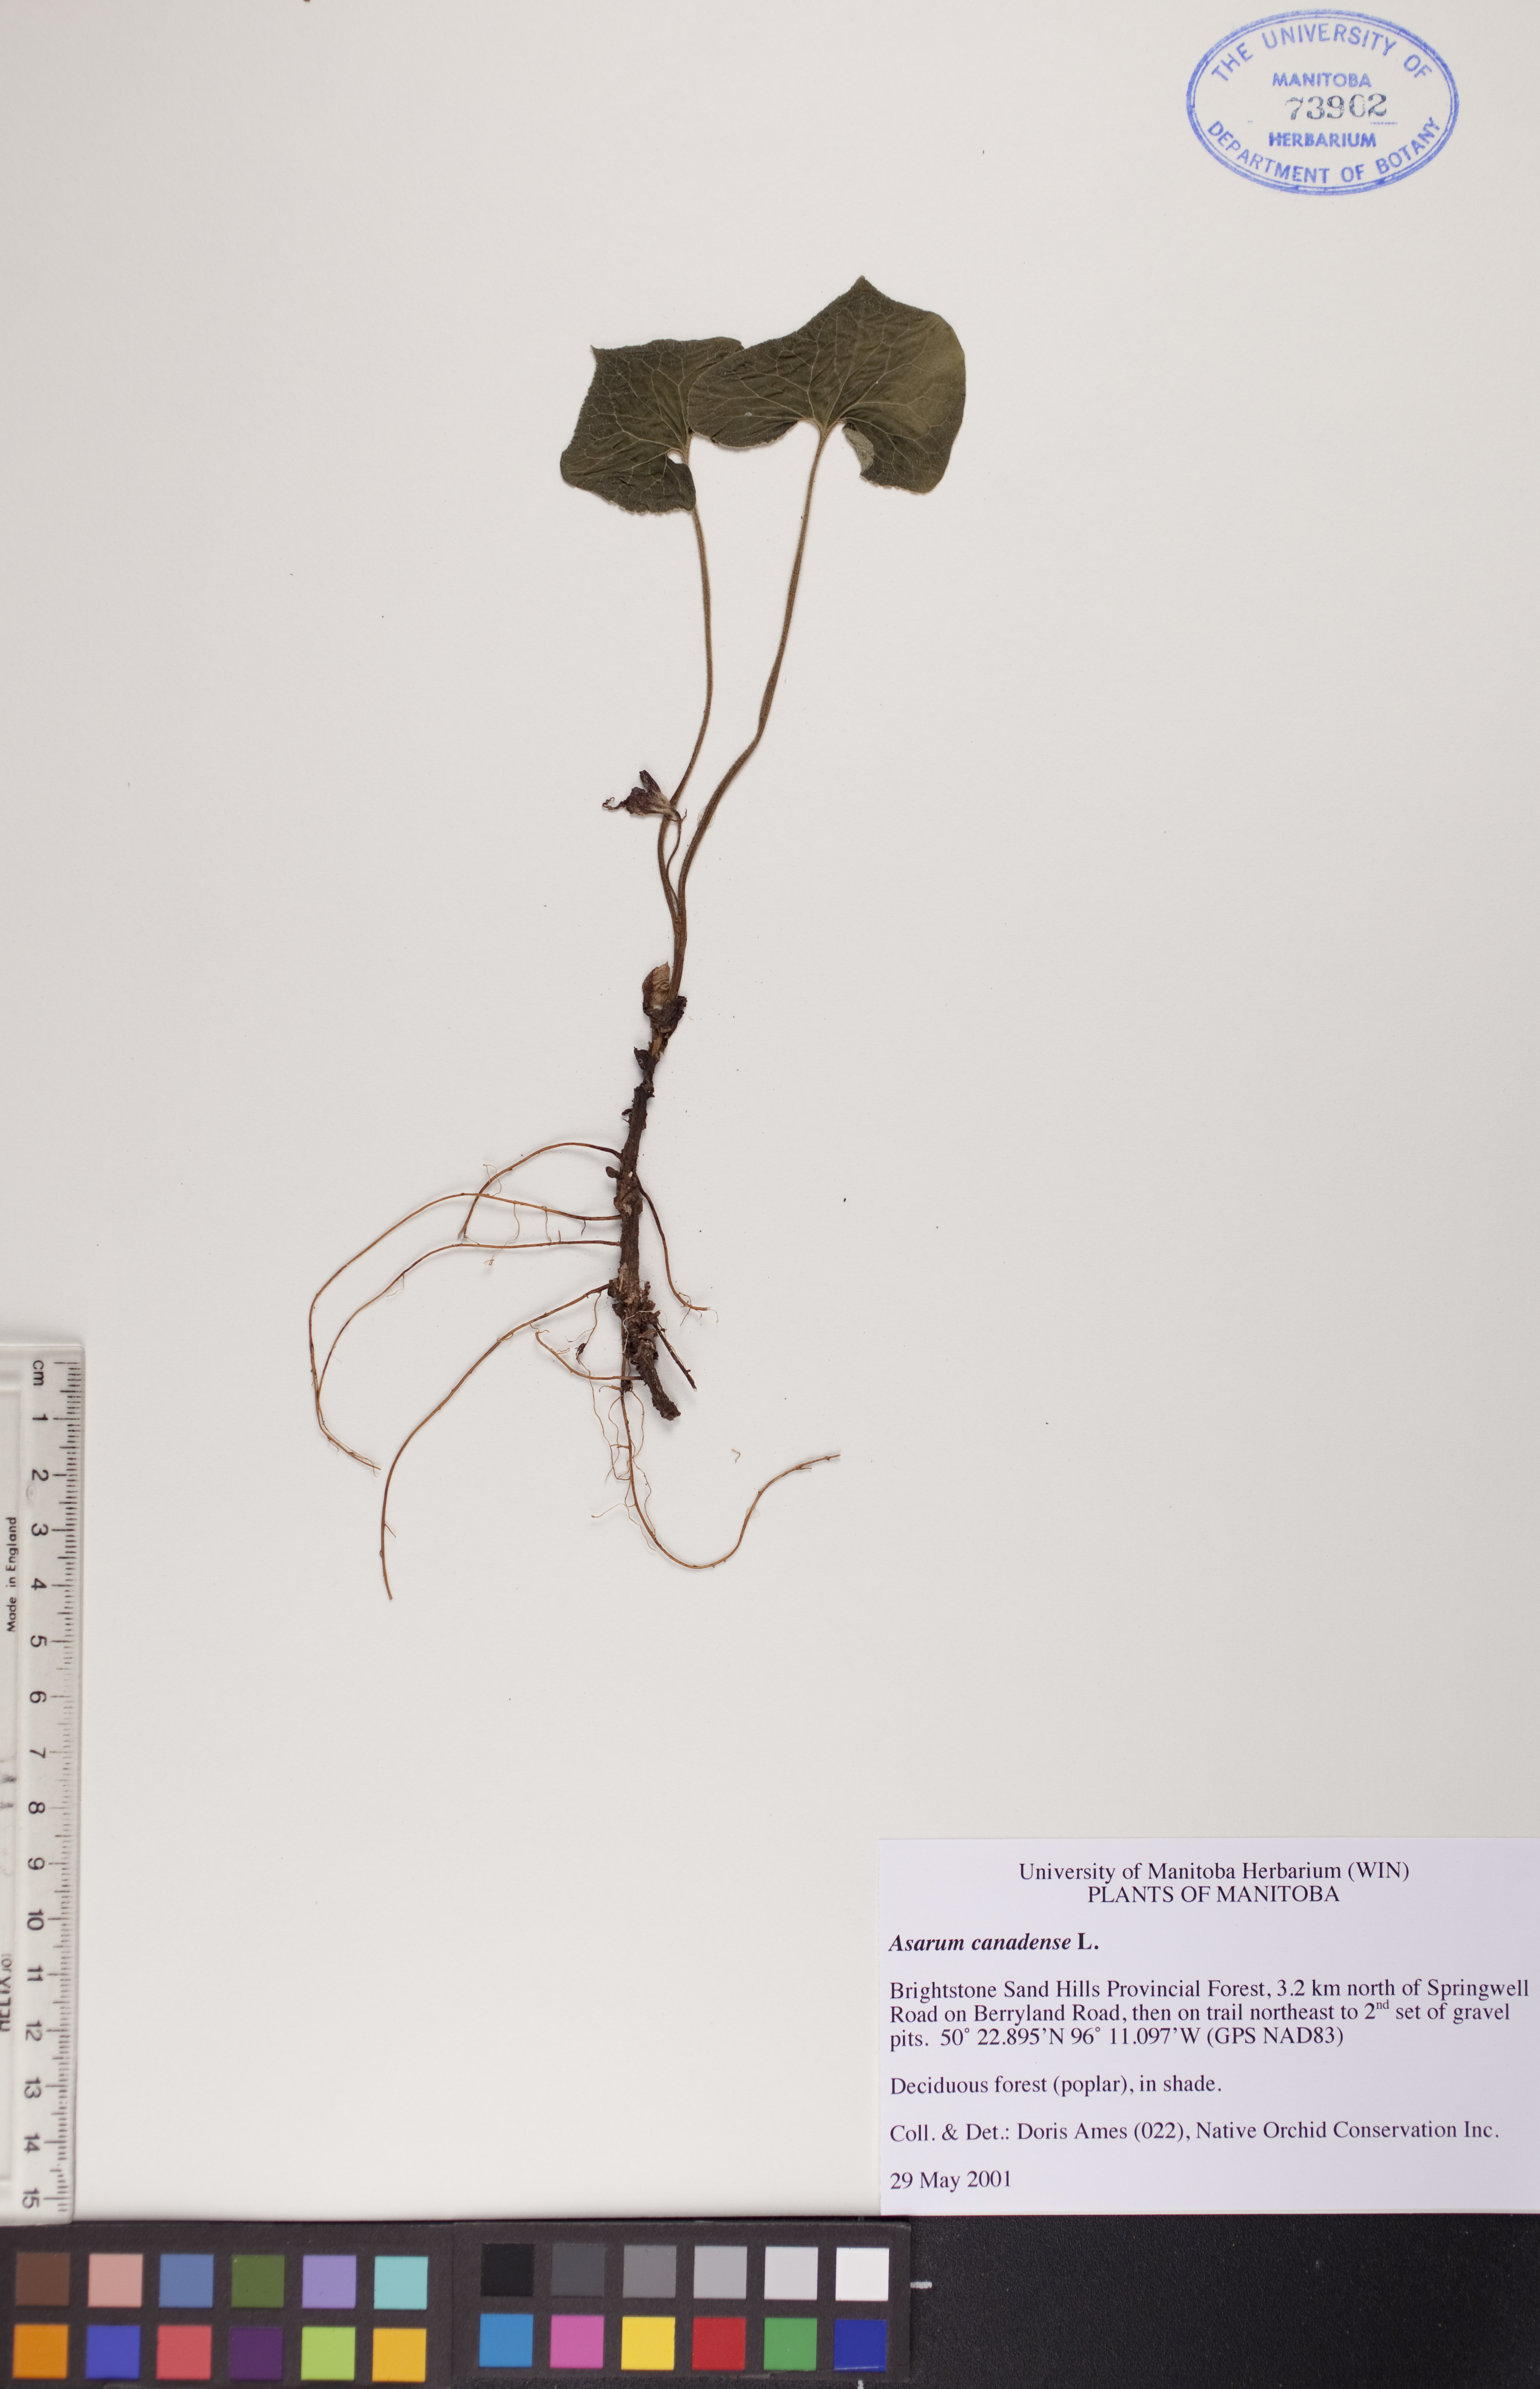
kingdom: Plantae
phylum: Tracheophyta
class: Magnoliopsida
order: Piperales
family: Aristolochiaceae
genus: Asarum
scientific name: Asarum canadense
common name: Wild ginger
